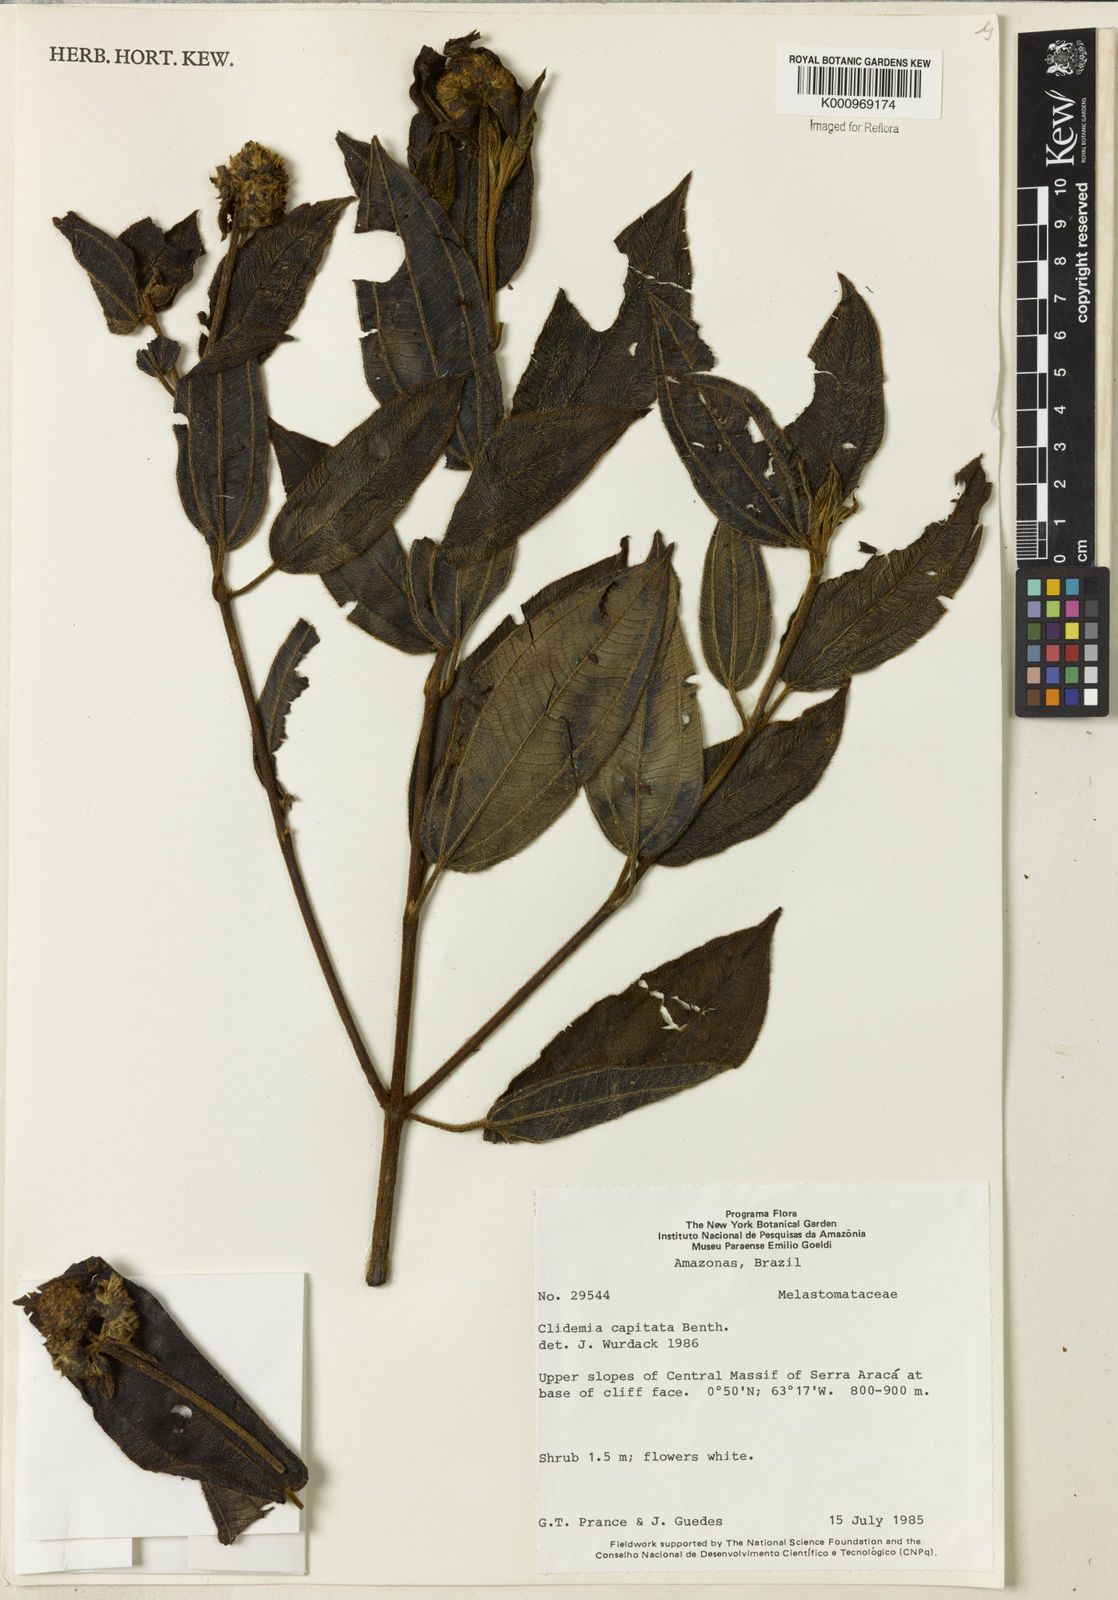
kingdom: Plantae
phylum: Tracheophyta
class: Magnoliopsida
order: Myrtales
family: Melastomataceae
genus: Miconia
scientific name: Miconia benthamii
